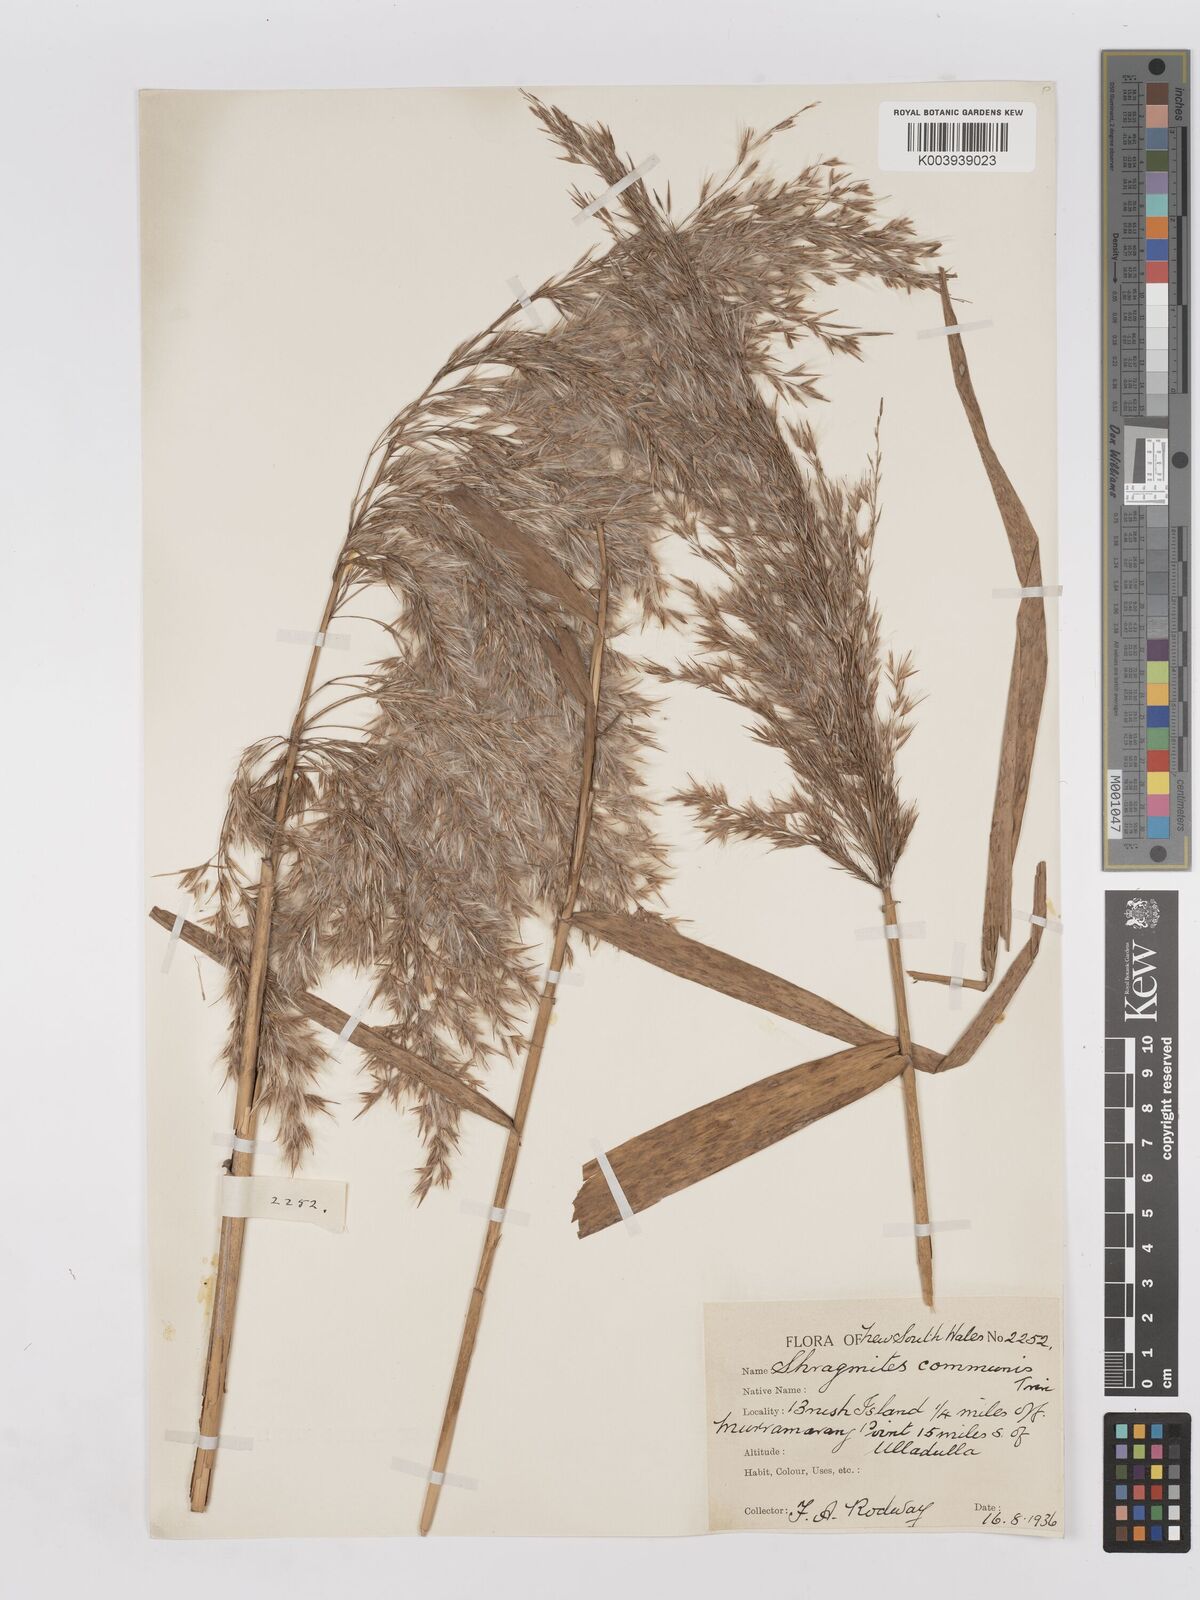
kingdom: Plantae
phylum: Tracheophyta
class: Liliopsida
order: Poales
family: Poaceae
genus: Phragmites
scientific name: Phragmites australis
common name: Common reed
